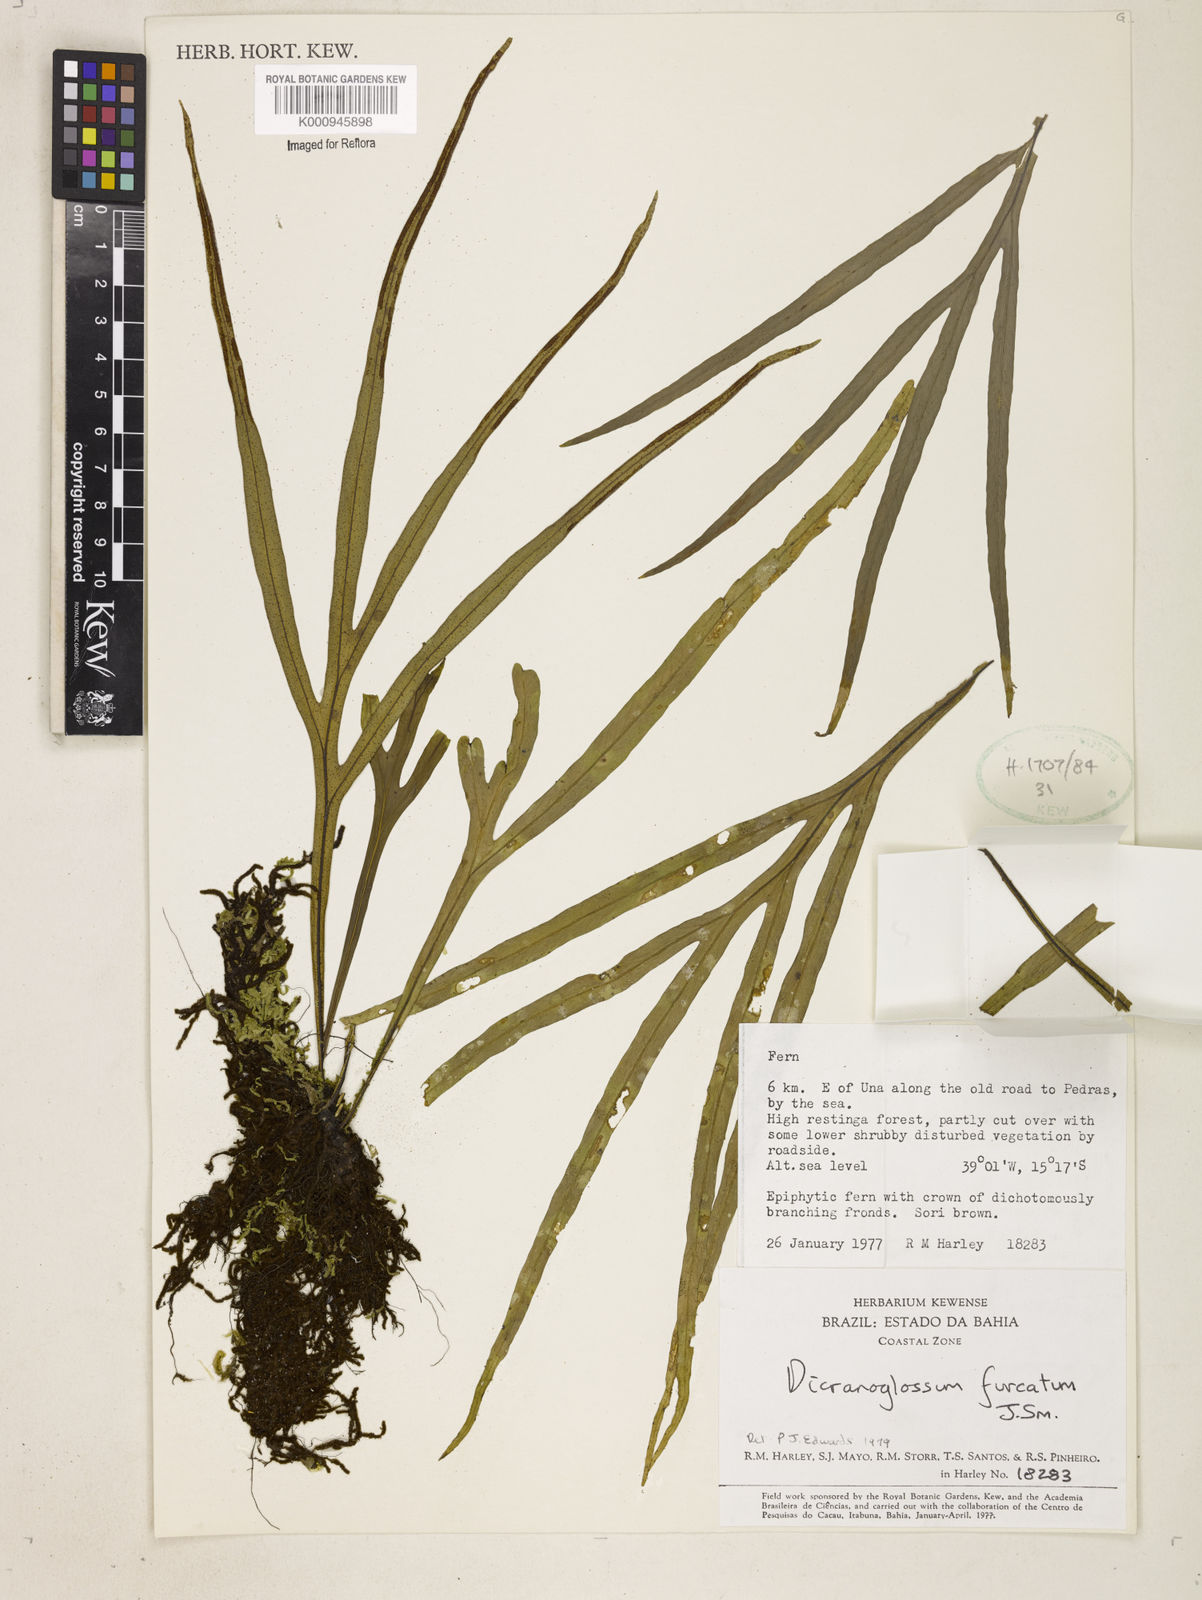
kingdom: Plantae
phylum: Tracheophyta
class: Polypodiopsida
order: Polypodiales
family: Polypodiaceae
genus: Pleopeltis
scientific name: Pleopeltis desvauxii
